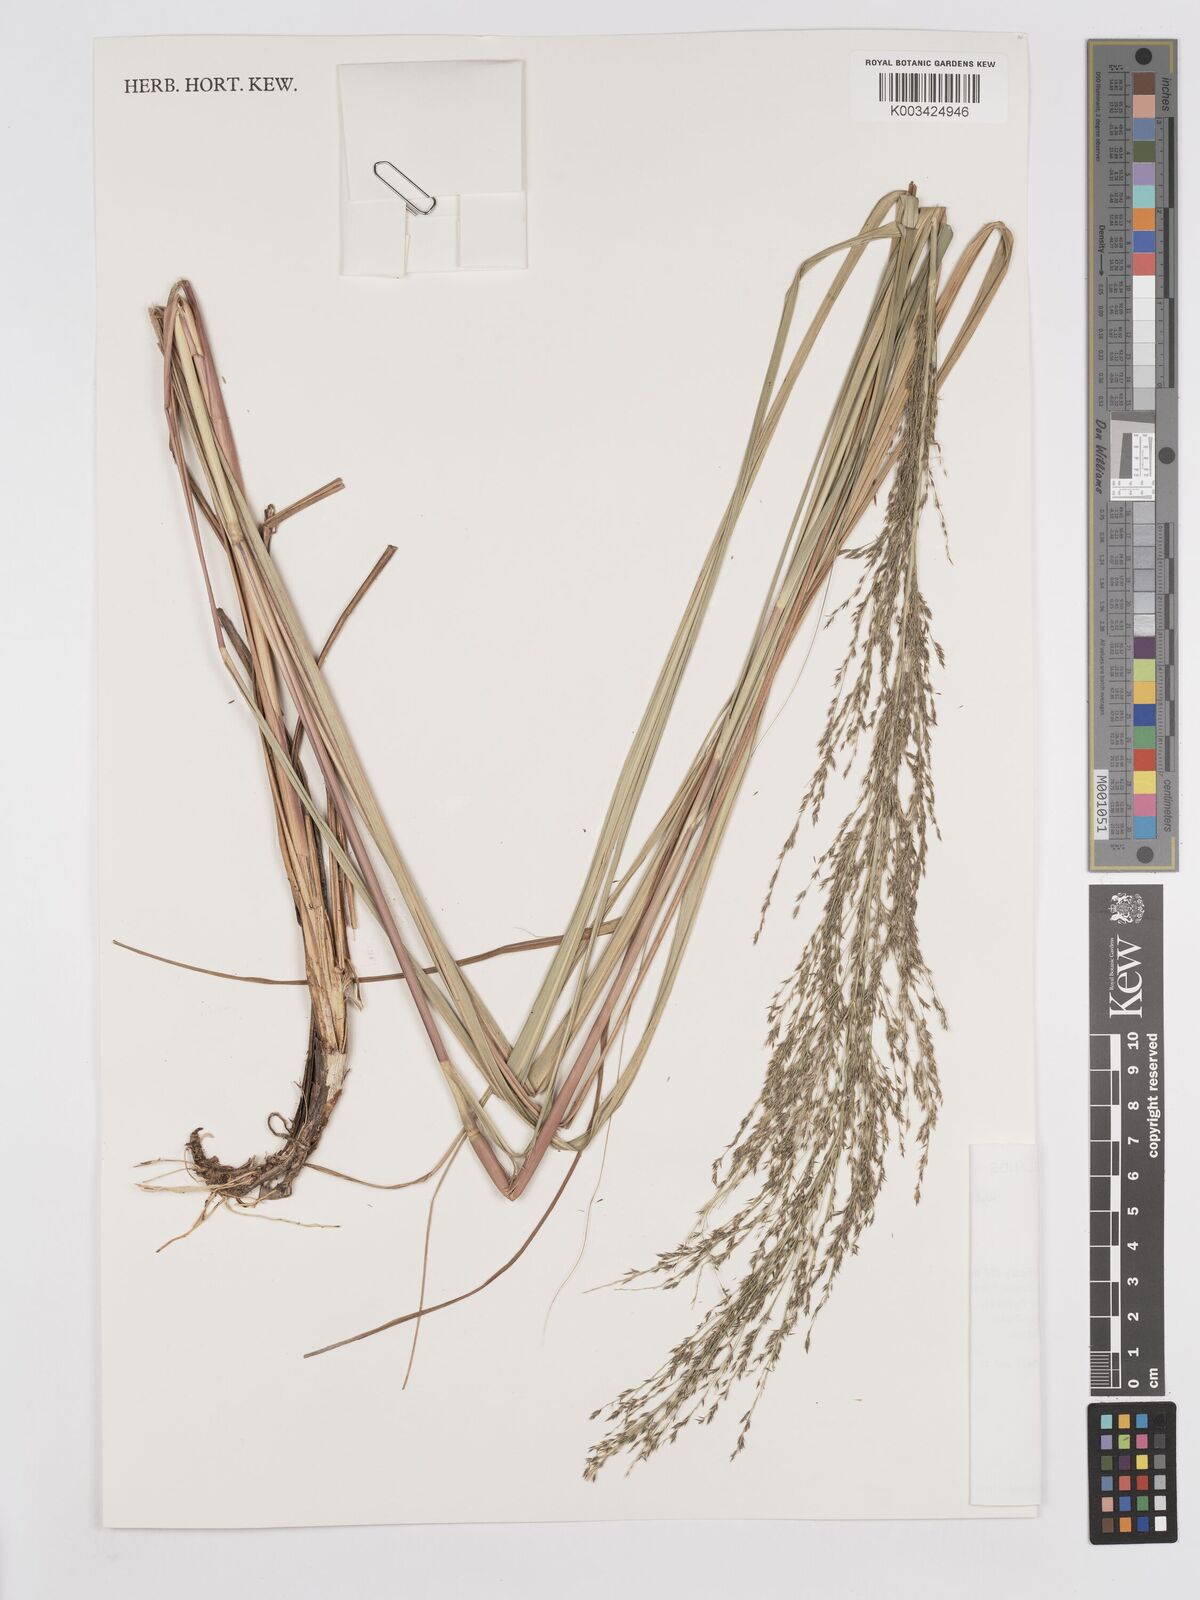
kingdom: Plantae
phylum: Tracheophyta
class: Liliopsida
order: Poales
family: Poaceae
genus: Eragrostis
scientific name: Eragrostis grandis
